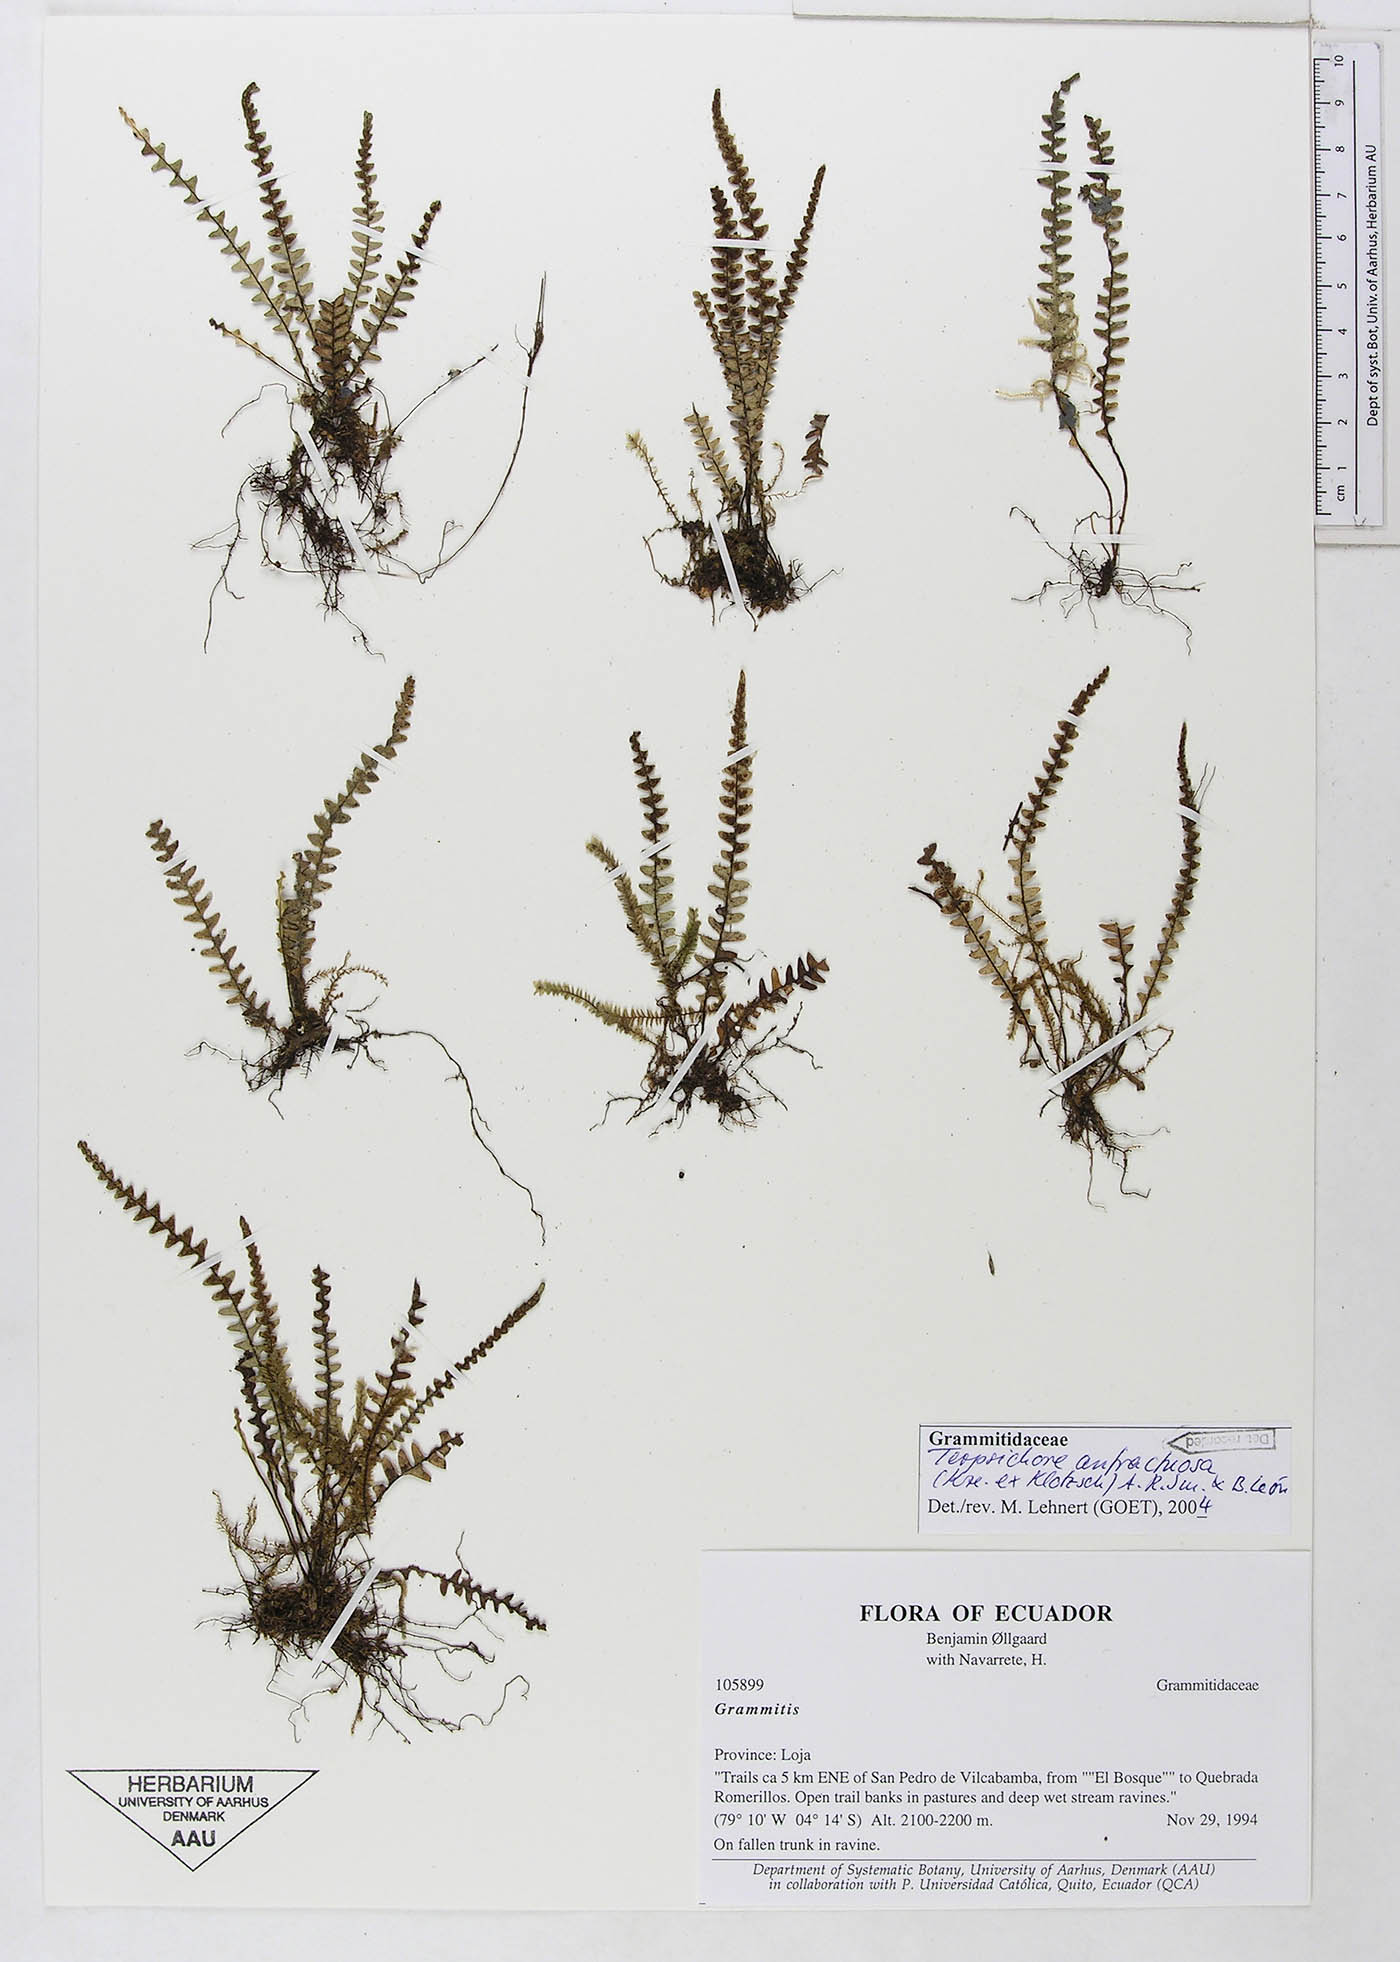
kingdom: Plantae
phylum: Tracheophyta
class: Polypodiopsida
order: Polypodiales
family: Polypodiaceae
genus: Ascogrammitis
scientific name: Ascogrammitis anfractuosa
